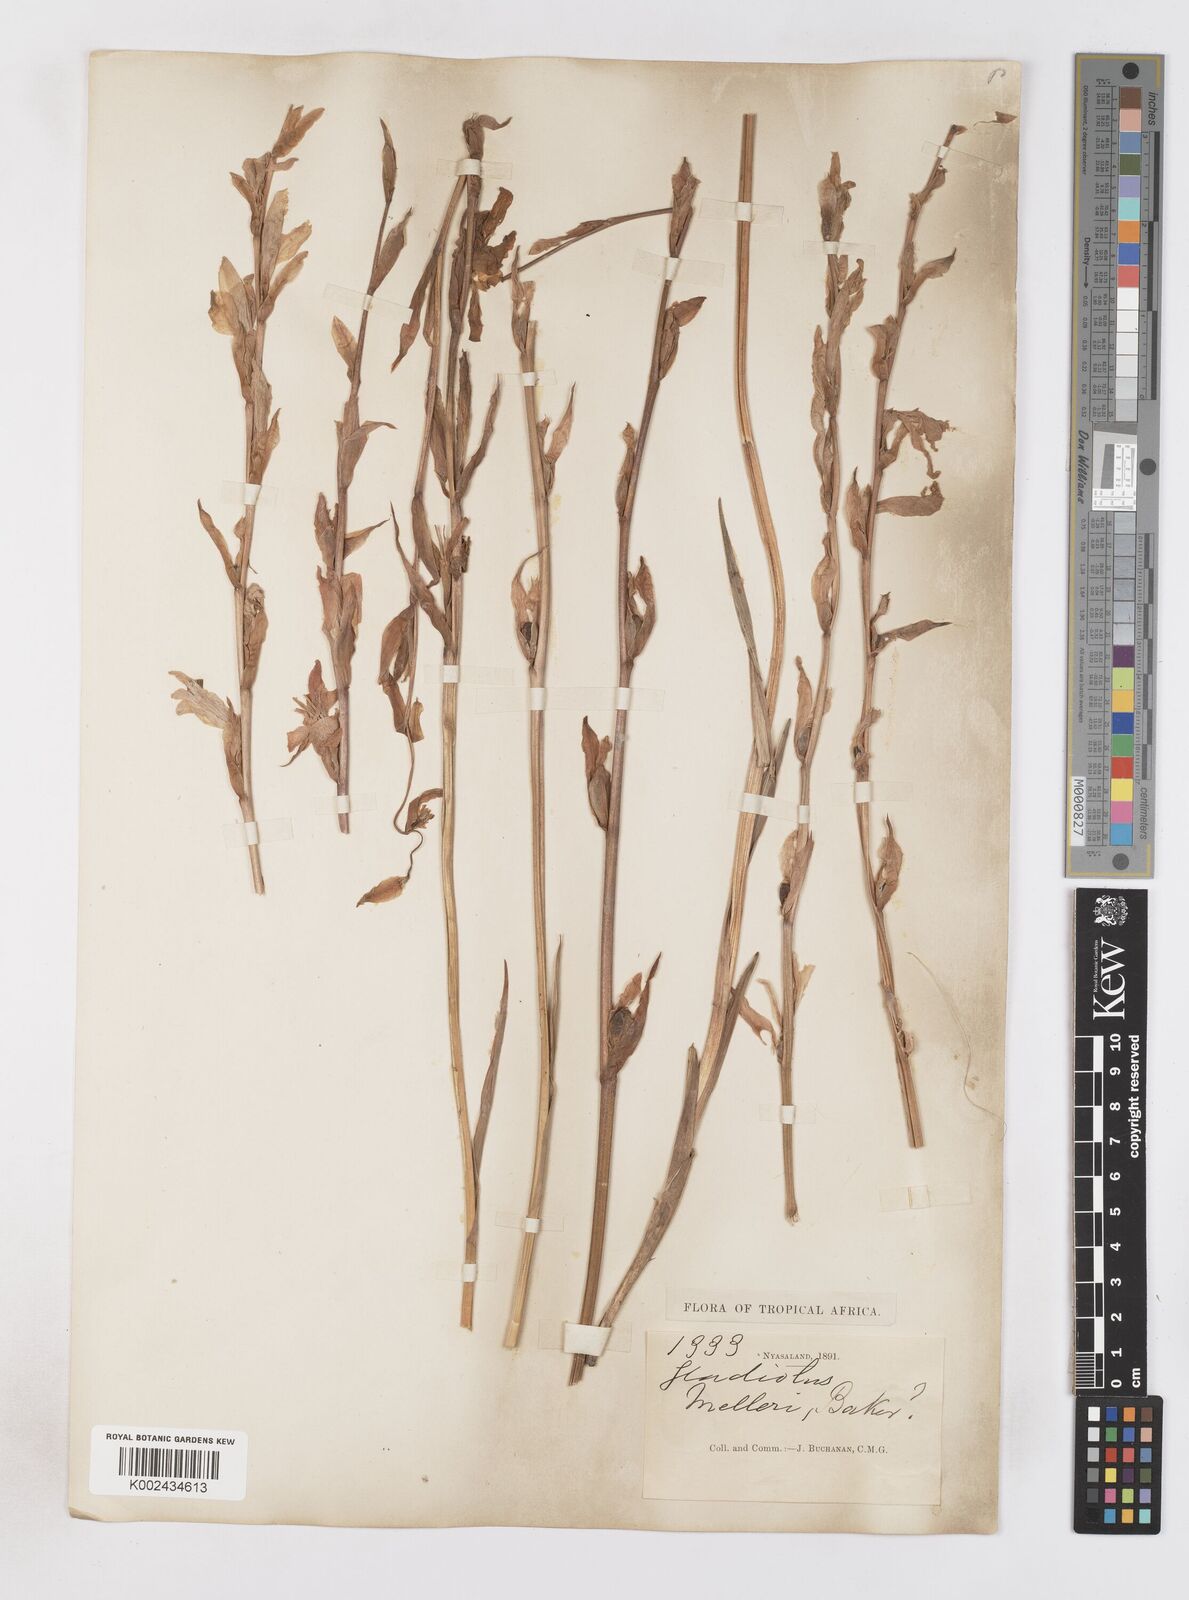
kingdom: Plantae
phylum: Tracheophyta
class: Liliopsida
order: Asparagales
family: Iridaceae
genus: Gladiolus
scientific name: Gladiolus melleri
